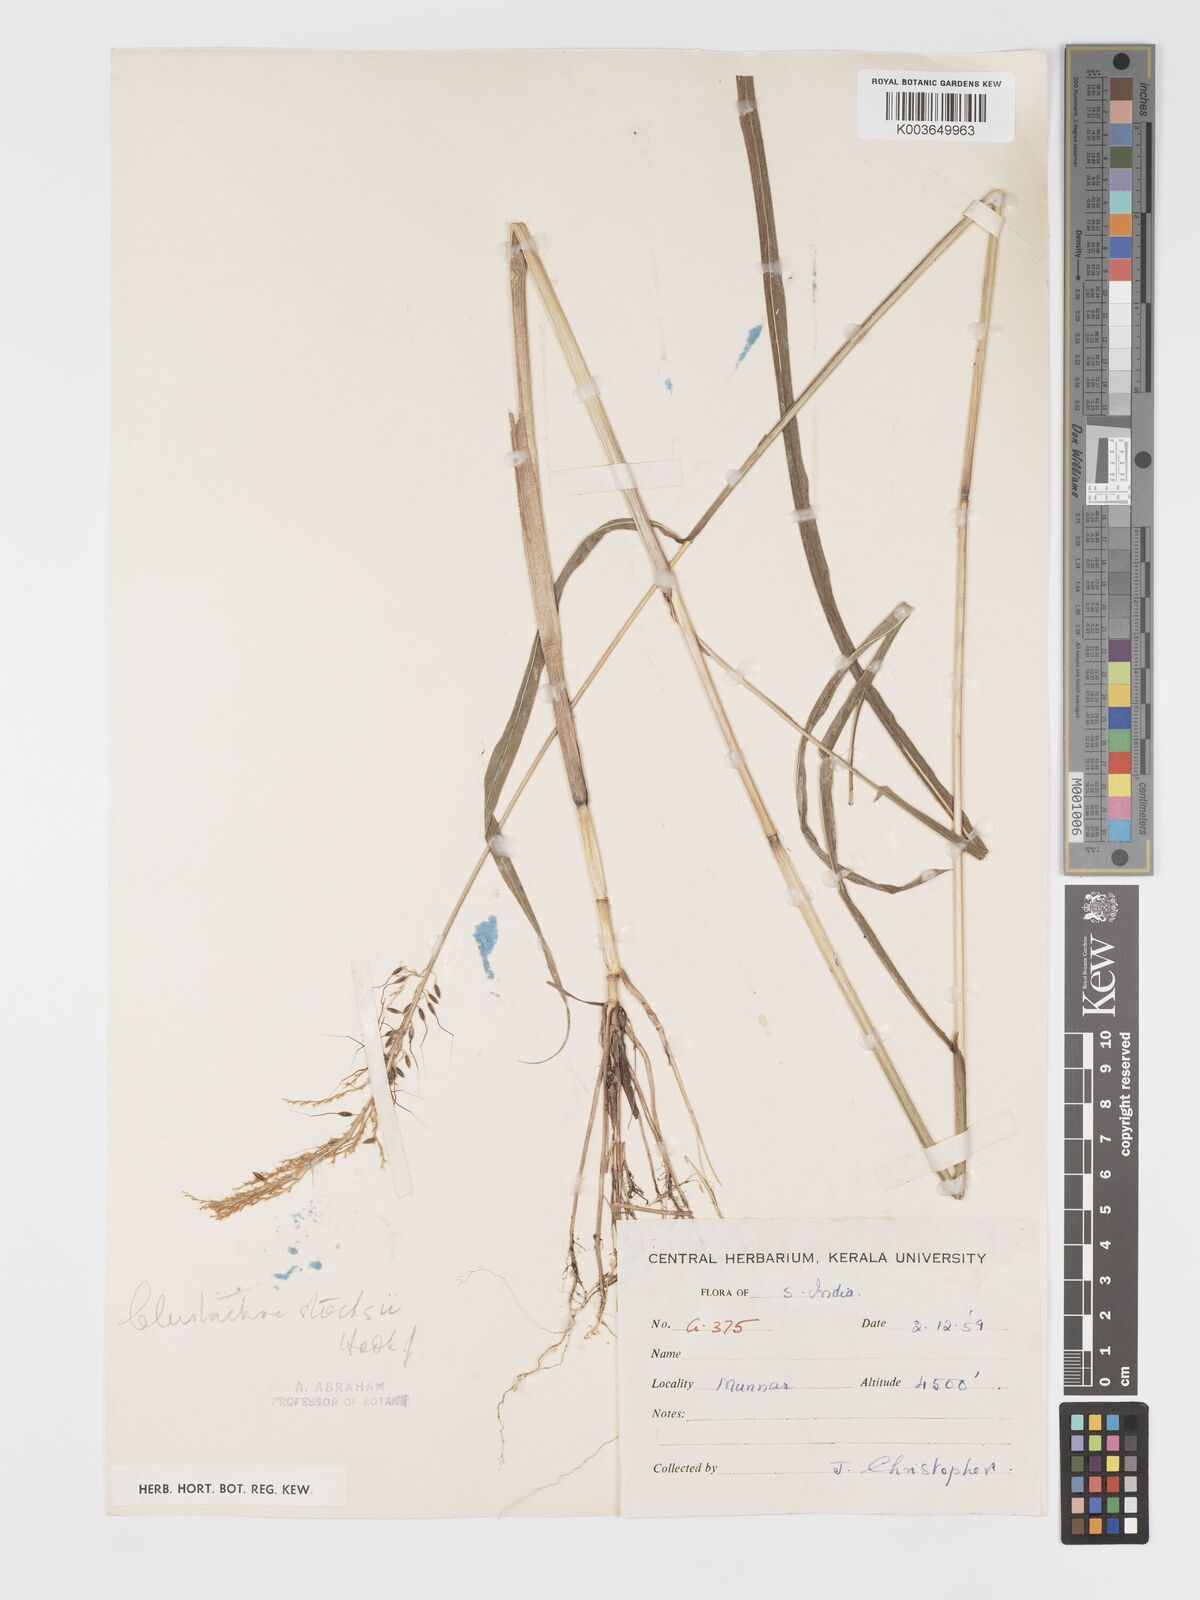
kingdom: Plantae
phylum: Tracheophyta
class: Liliopsida
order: Poales
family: Poaceae
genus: Cleistachne
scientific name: Cleistachne sorghoides
